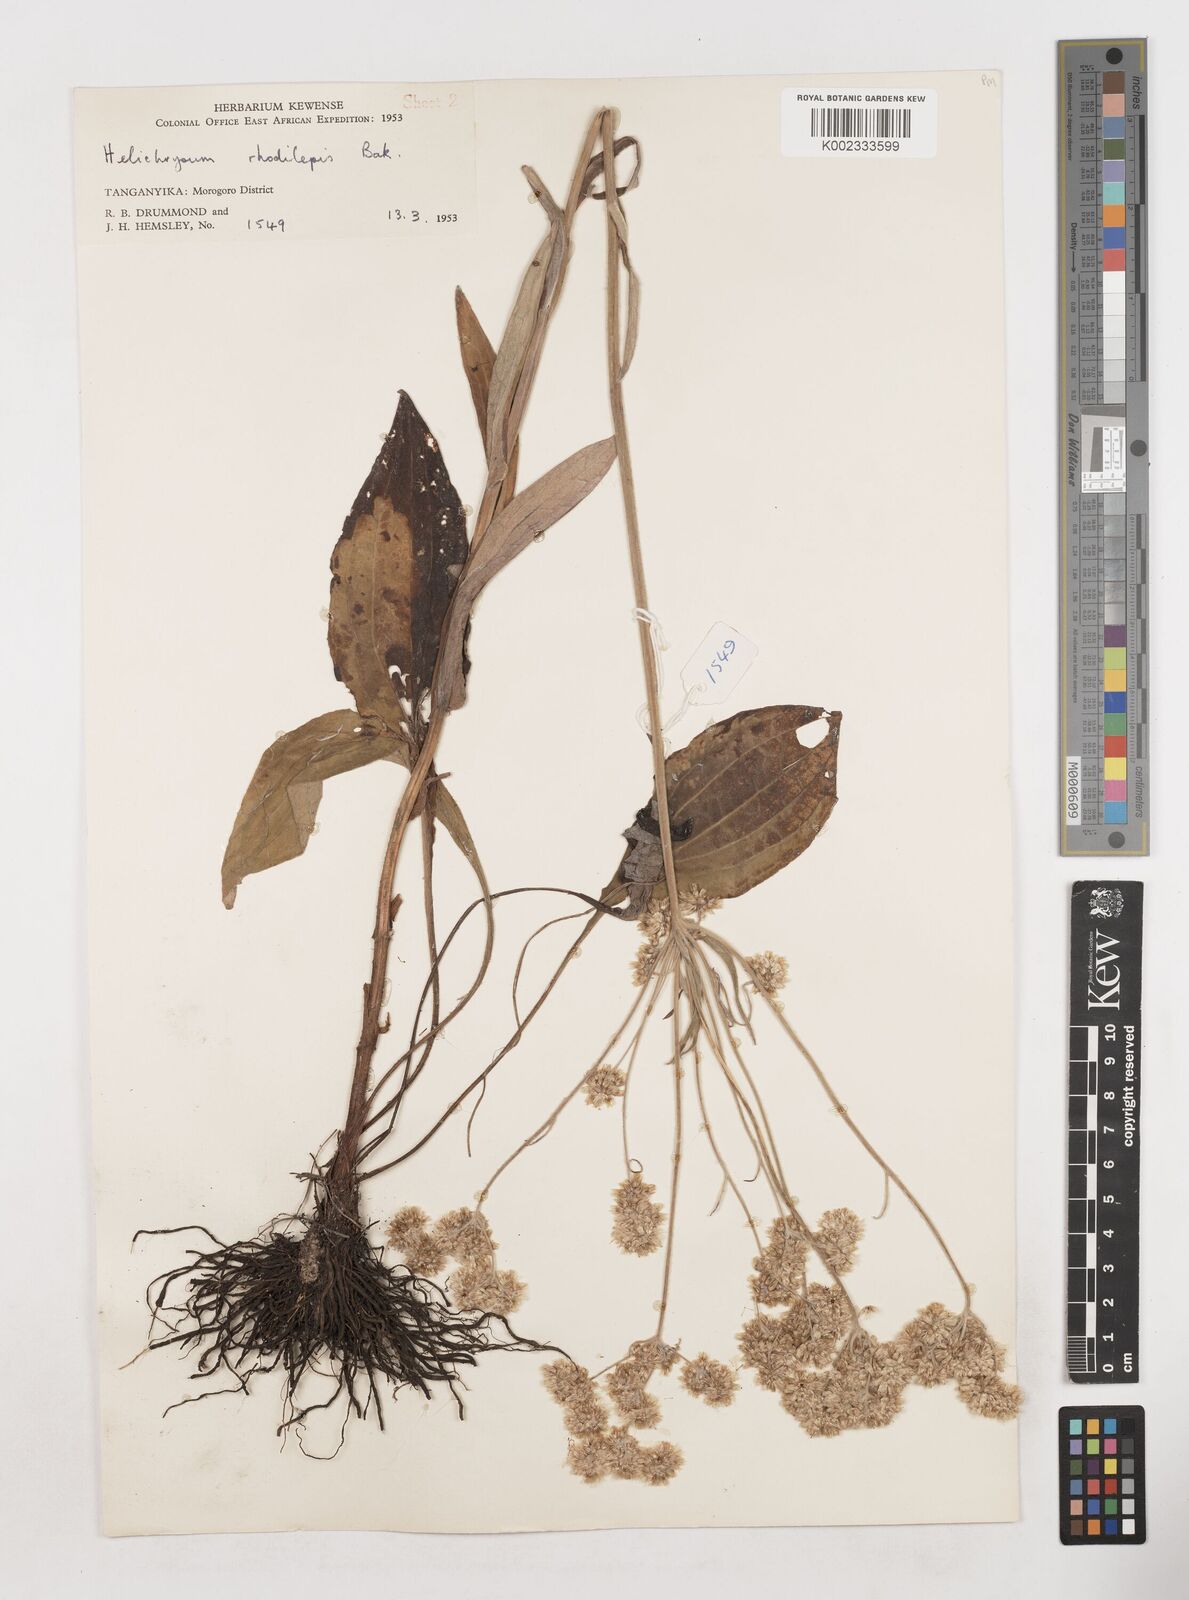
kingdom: Plantae
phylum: Tracheophyta
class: Magnoliopsida
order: Asterales
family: Asteraceae
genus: Helichrysum
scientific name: Helichrysum globosum
